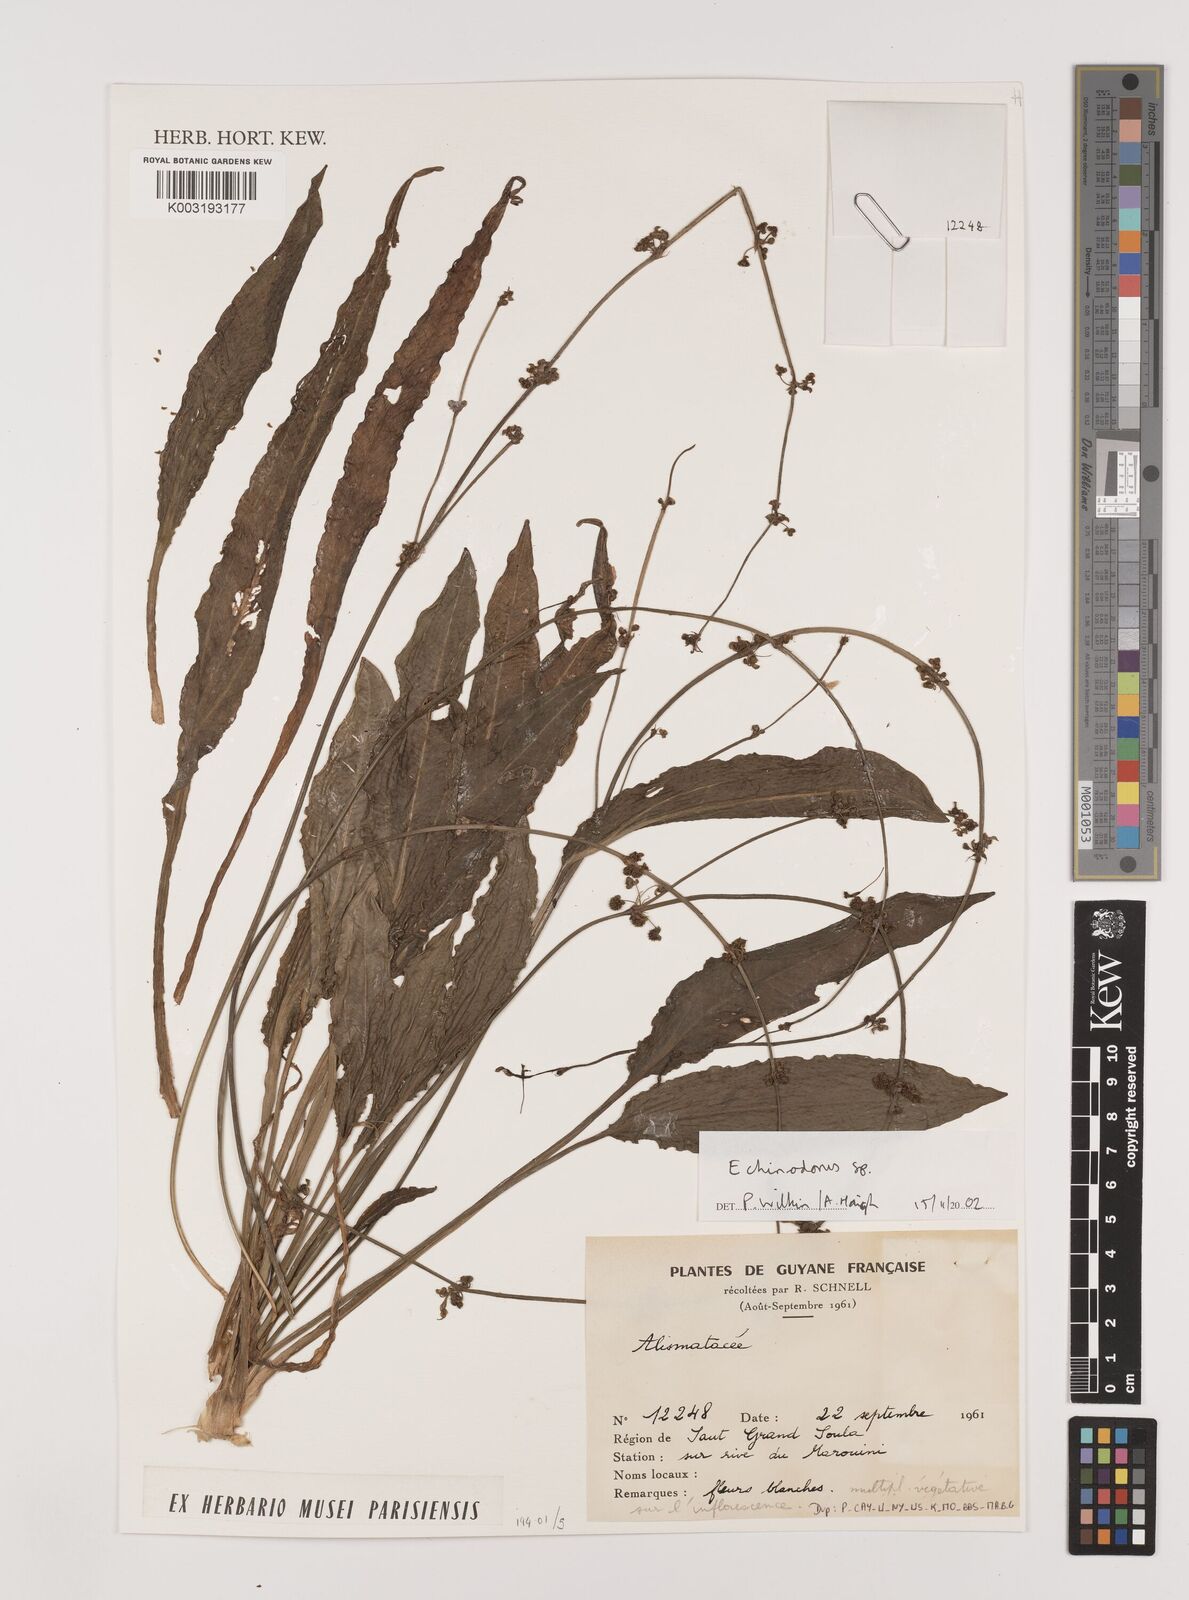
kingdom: Plantae
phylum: Tracheophyta
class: Liliopsida
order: Alismatales
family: Alismataceae
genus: Echinodorus
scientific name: Echinodorus
